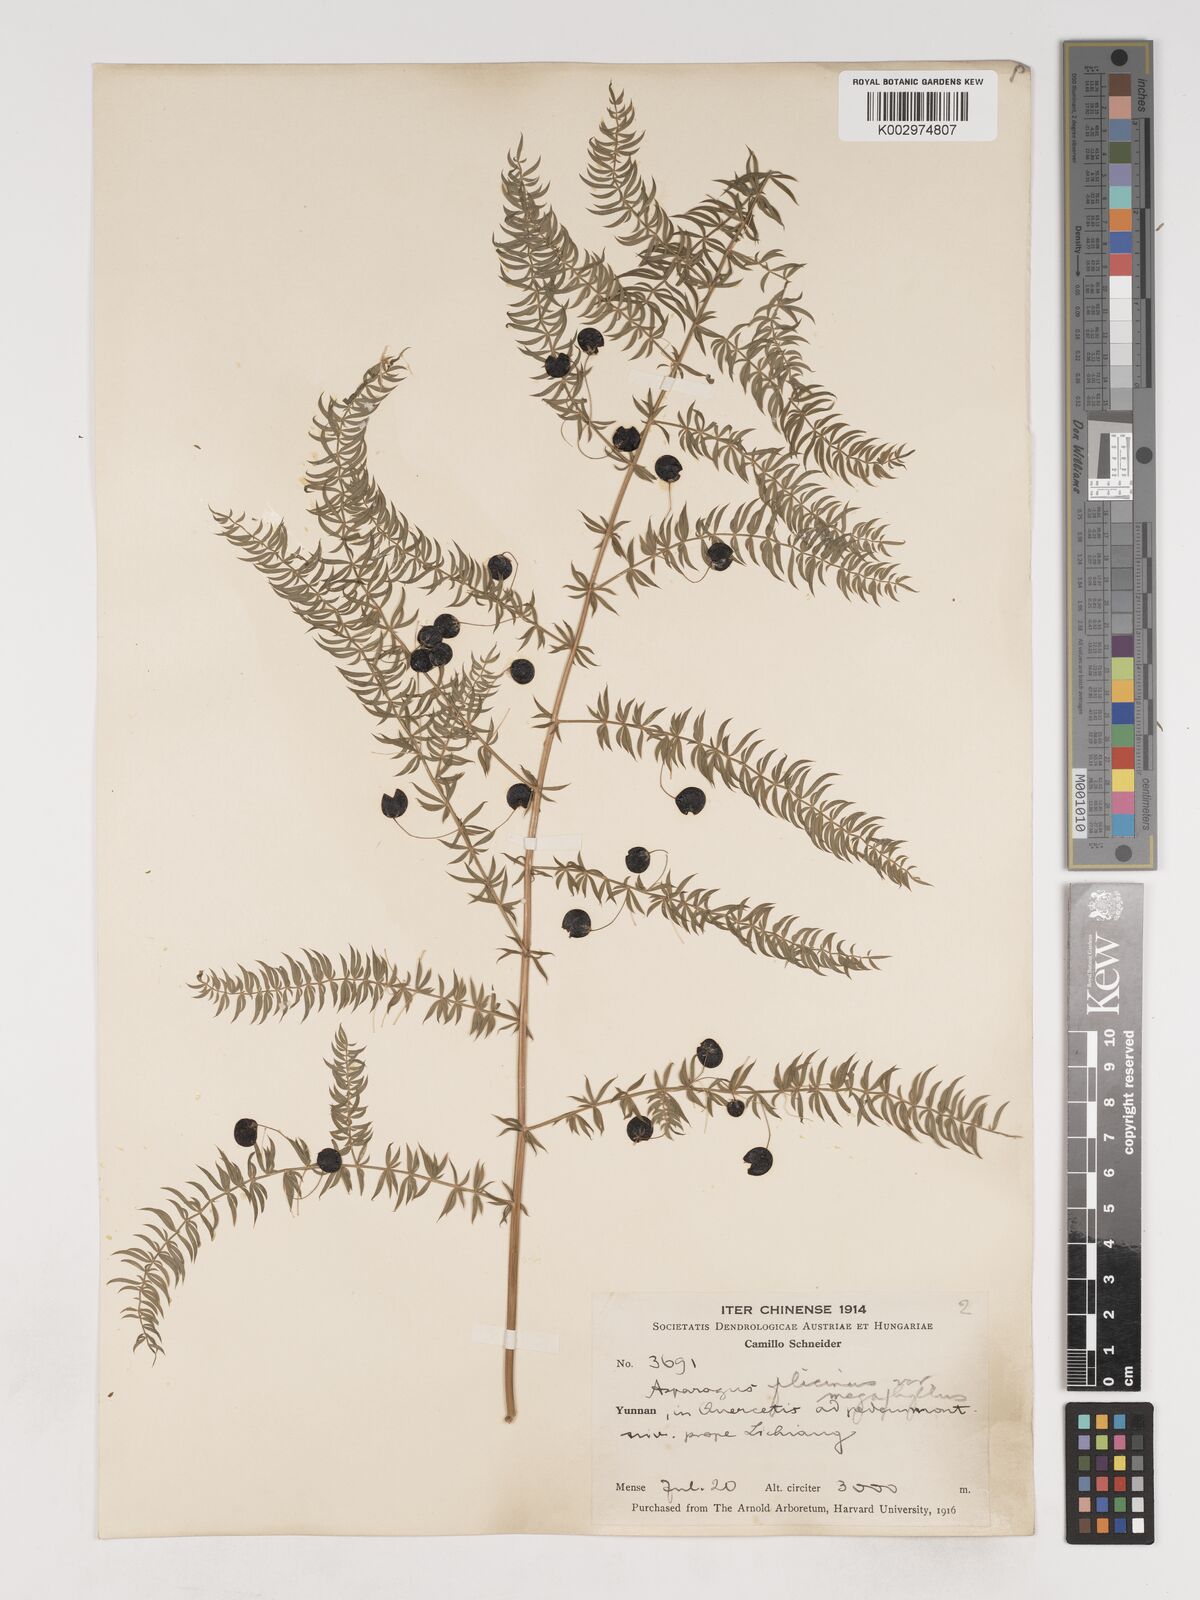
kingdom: Plantae
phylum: Tracheophyta
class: Liliopsida
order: Asparagales
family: Asparagaceae
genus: Asparagus
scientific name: Asparagus filicinus
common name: Fern asparagus
